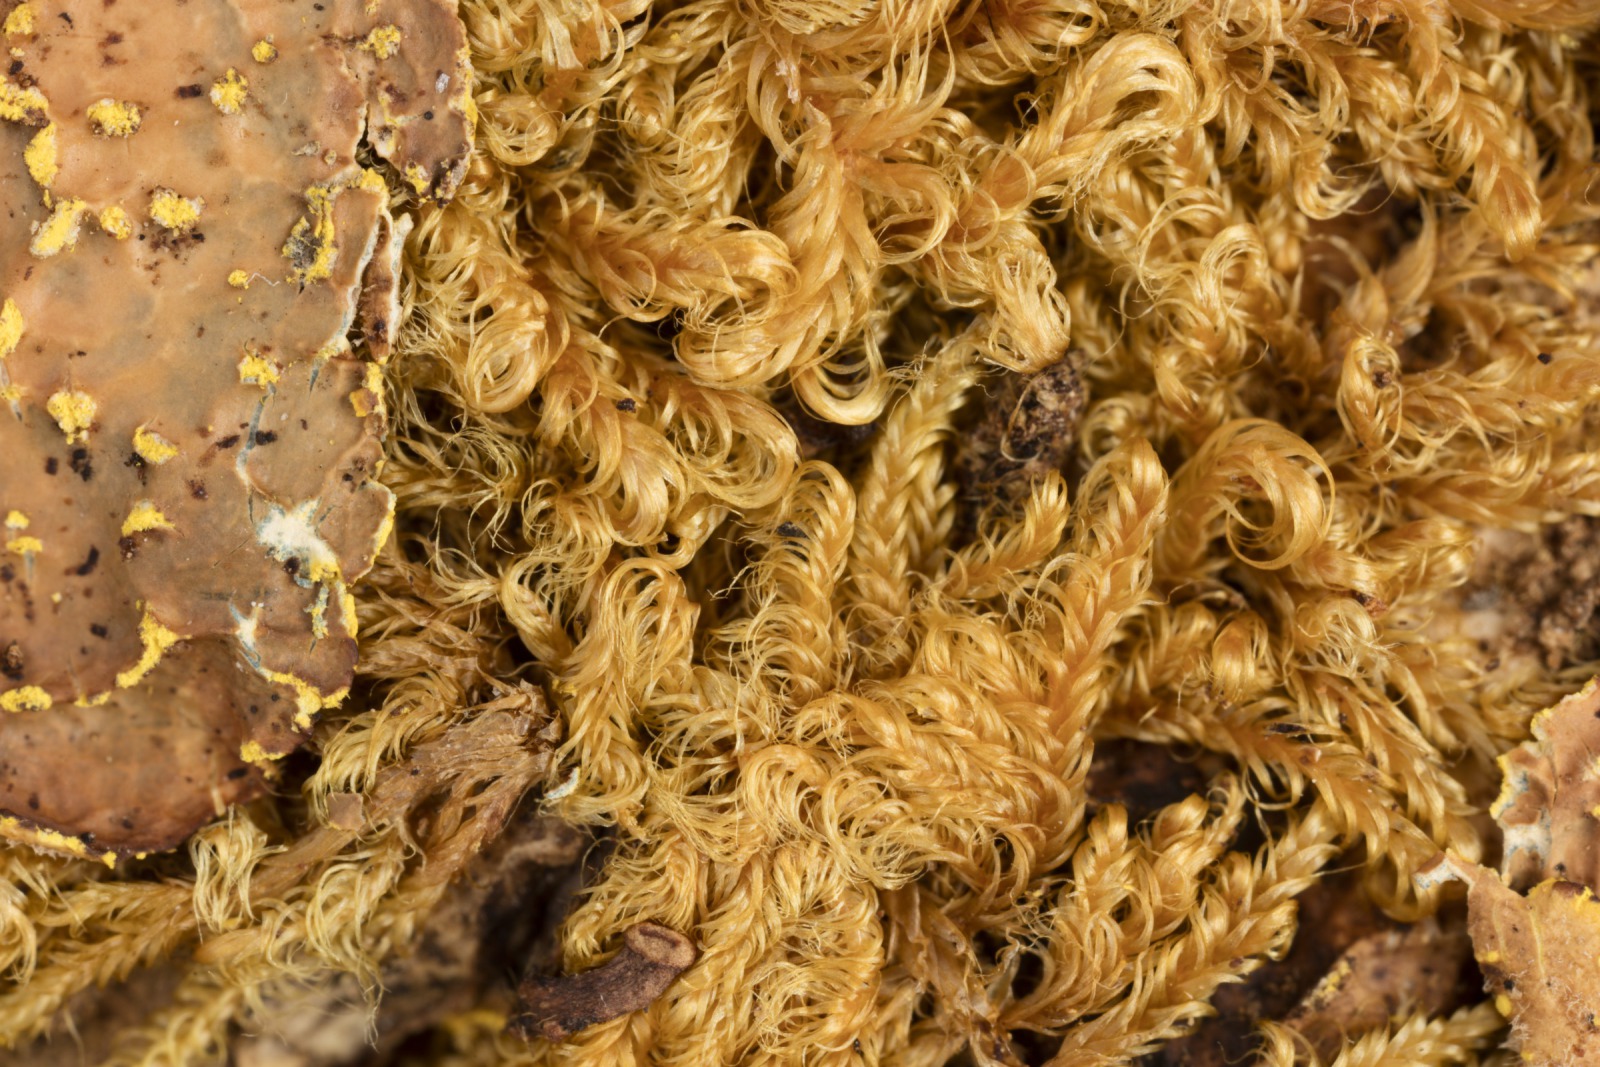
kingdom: Fungi
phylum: Ascomycota
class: Lecanoromycetes
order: Peltigerales
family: Lobariaceae
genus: Pseudocyphellaria
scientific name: Pseudocyphellaria crocata
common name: Golden specklebelly
